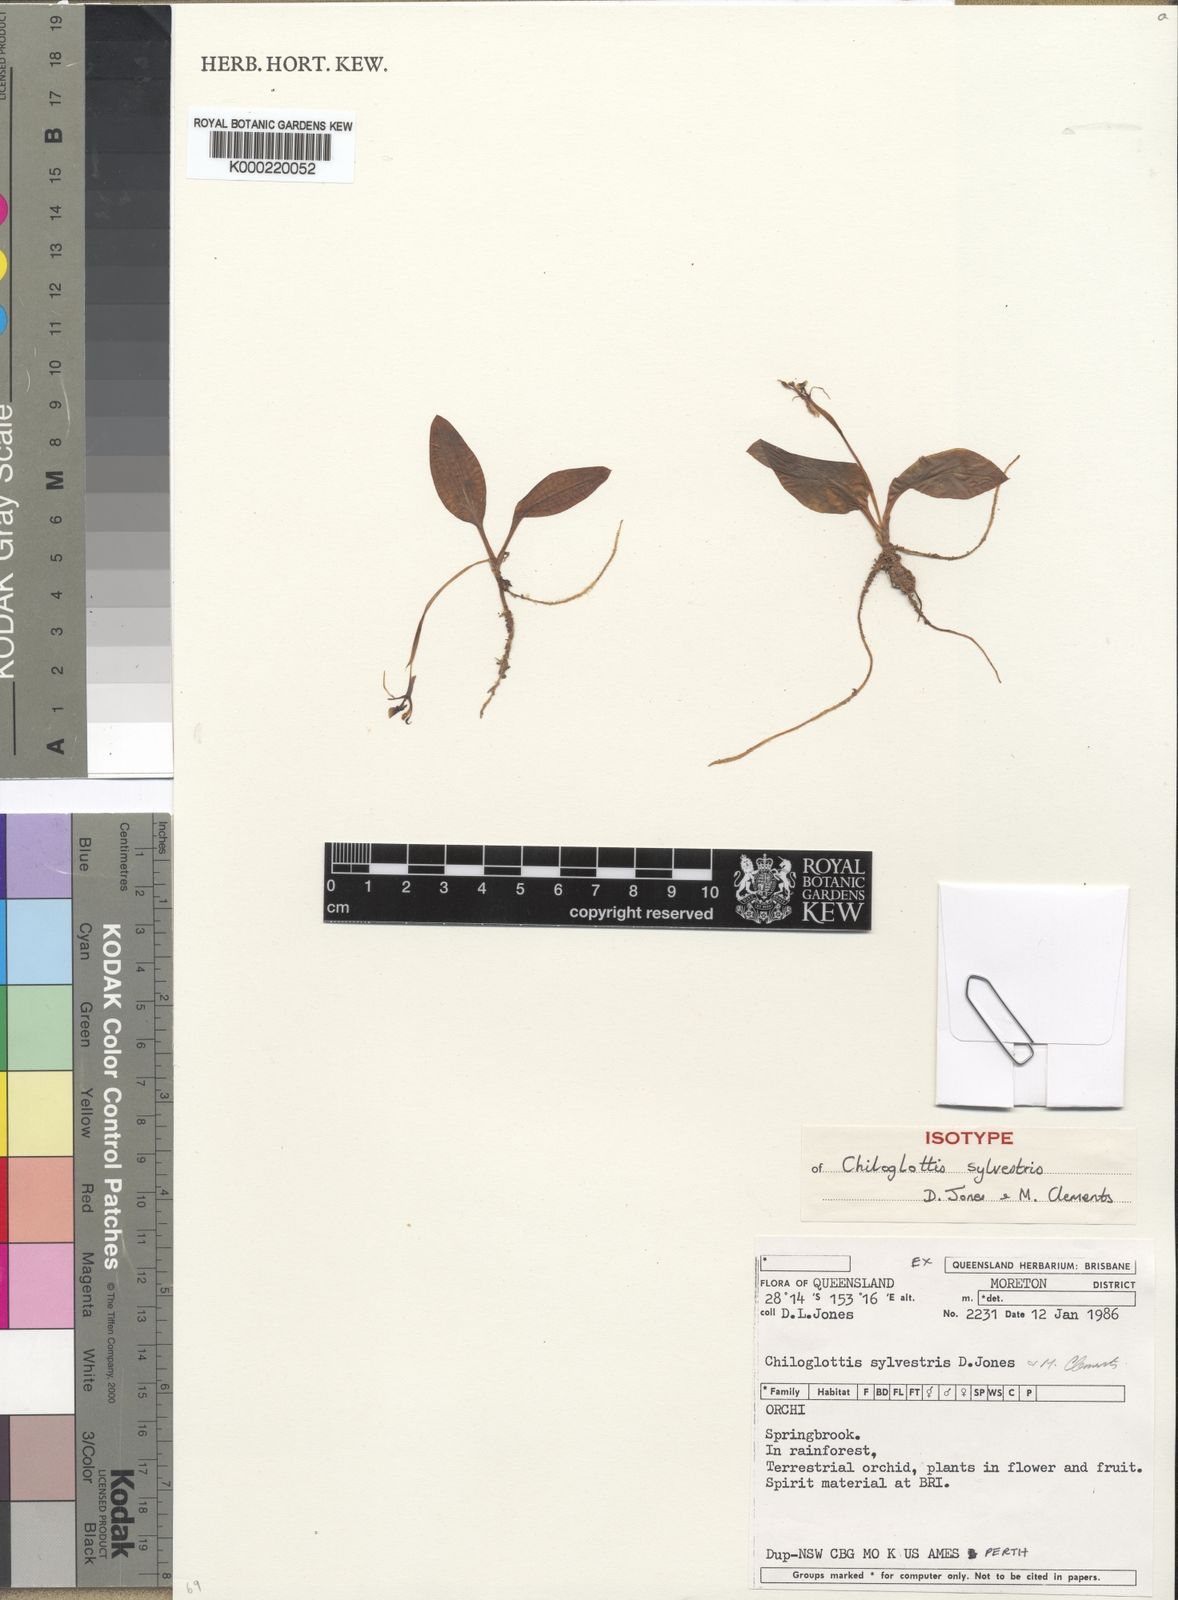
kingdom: Plantae
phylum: Tracheophyta
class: Liliopsida
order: Asparagales
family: Orchidaceae
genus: Chiloglottis
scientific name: Chiloglottis sylvestris
